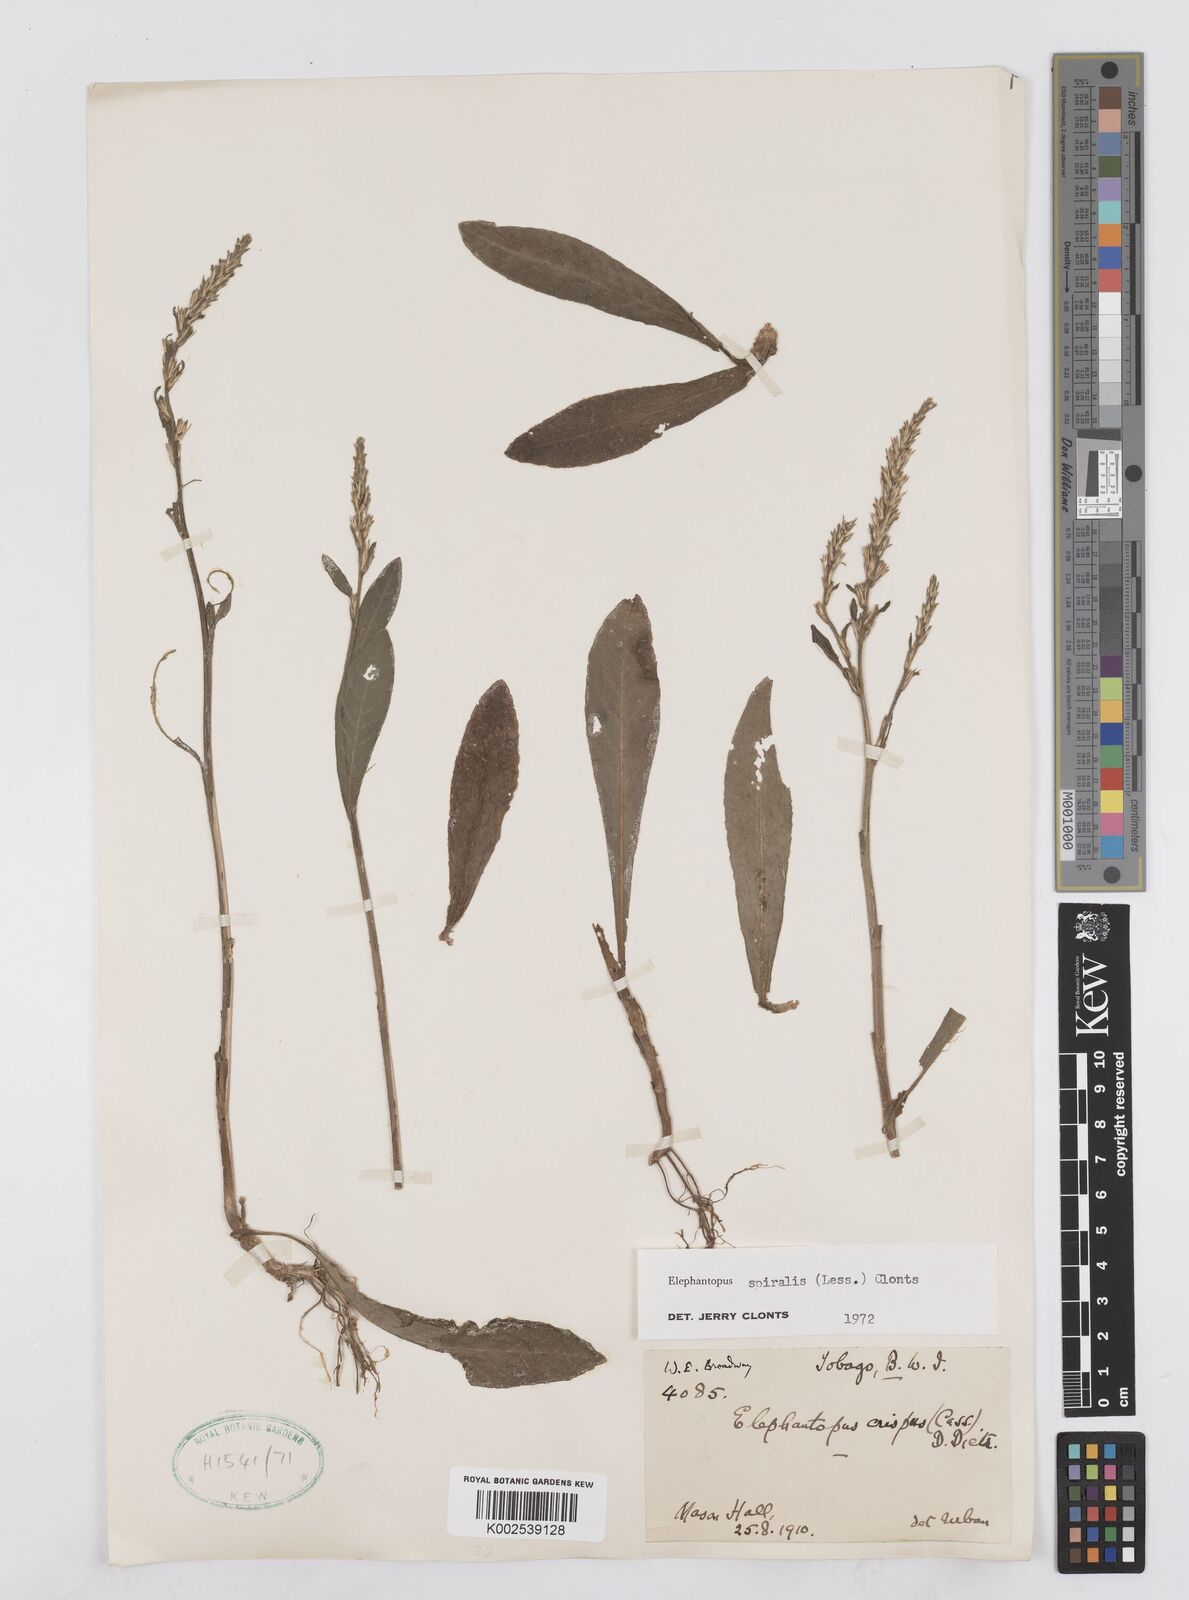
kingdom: Plantae
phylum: Tracheophyta
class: Magnoliopsida
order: Asterales
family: Asteraceae
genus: Pseudelephantopus
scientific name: Pseudelephantopus spiralis
